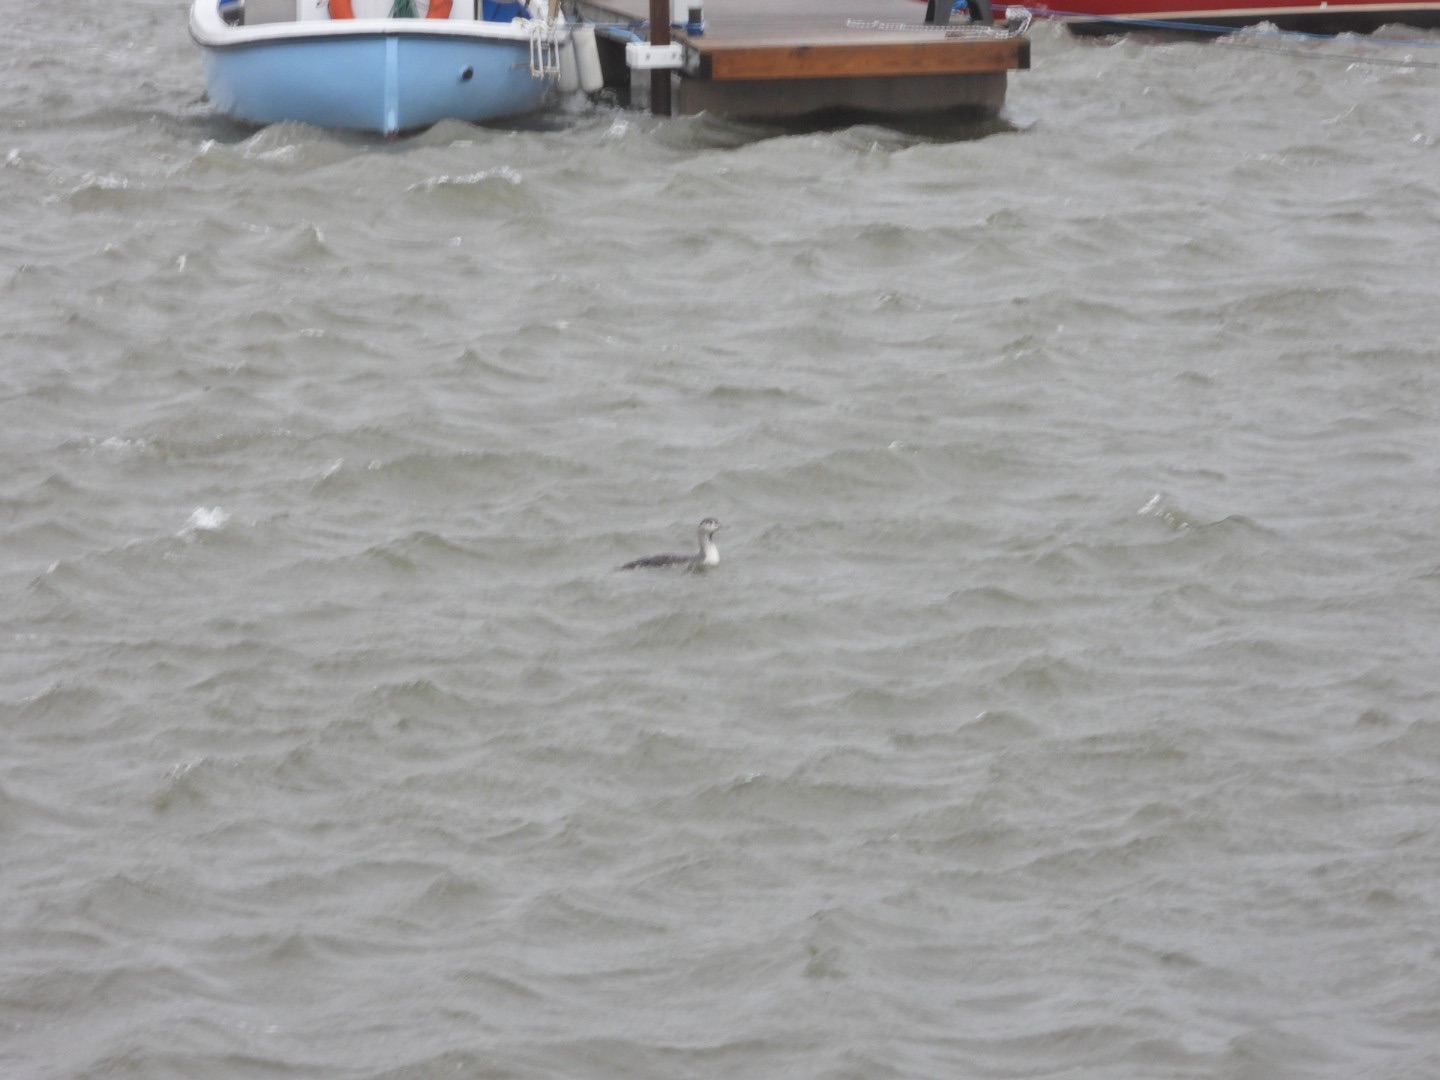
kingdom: Animalia
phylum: Chordata
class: Aves
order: Gaviiformes
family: Gaviidae
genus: Gavia
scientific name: Gavia stellata
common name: Rødstrubet lom
